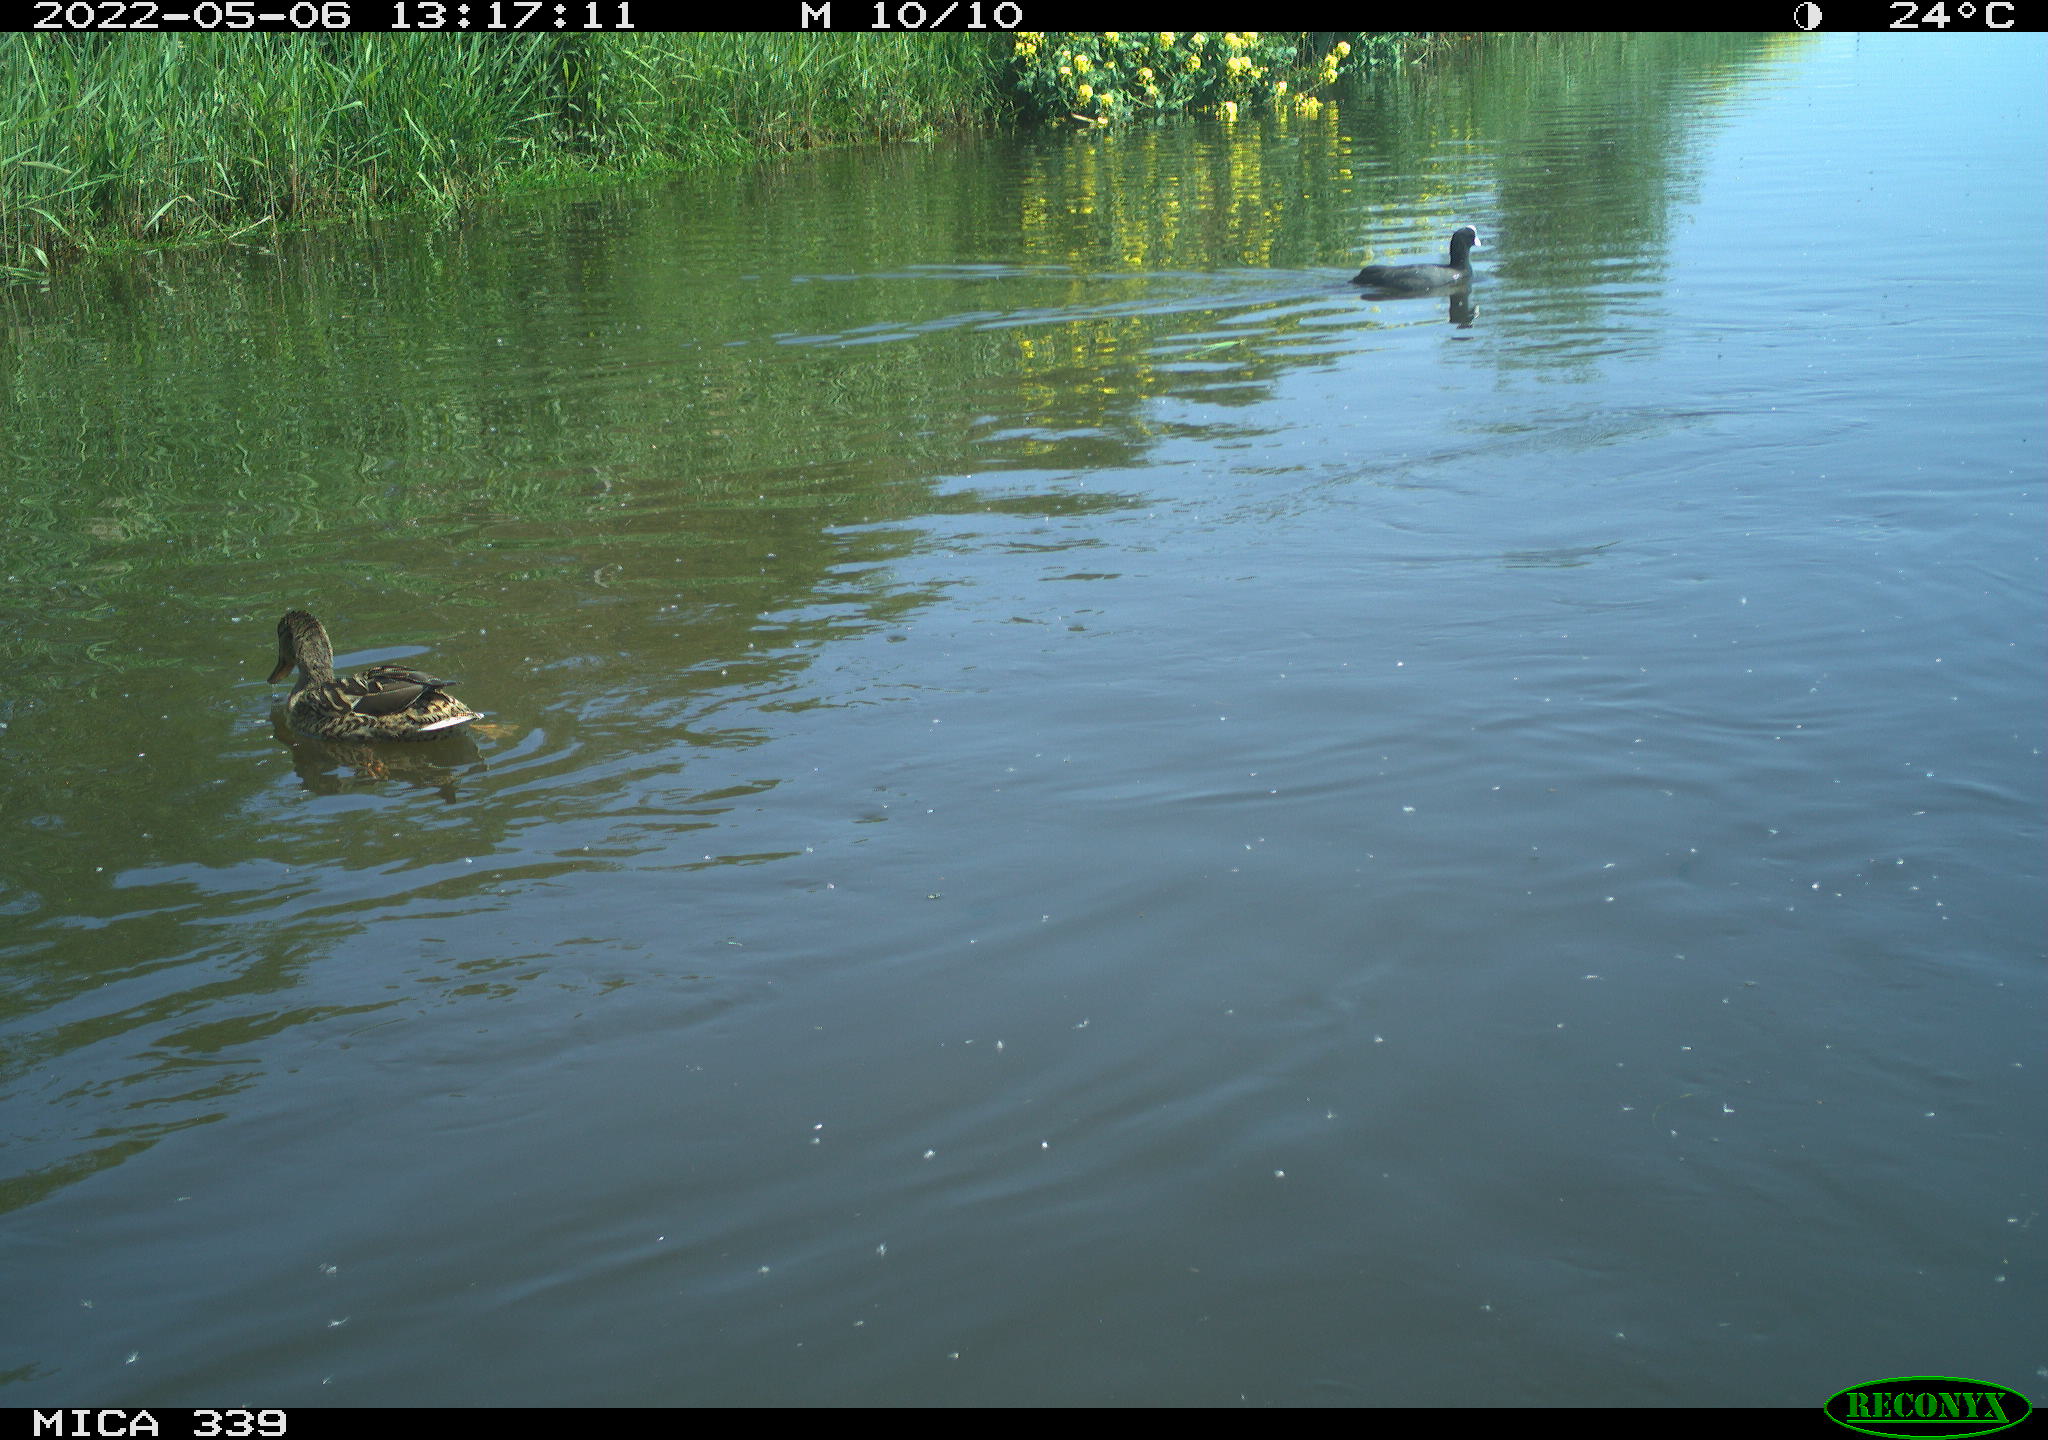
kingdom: Animalia
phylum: Chordata
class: Aves
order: Gruiformes
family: Rallidae
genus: Fulica
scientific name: Fulica atra
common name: Eurasian coot
